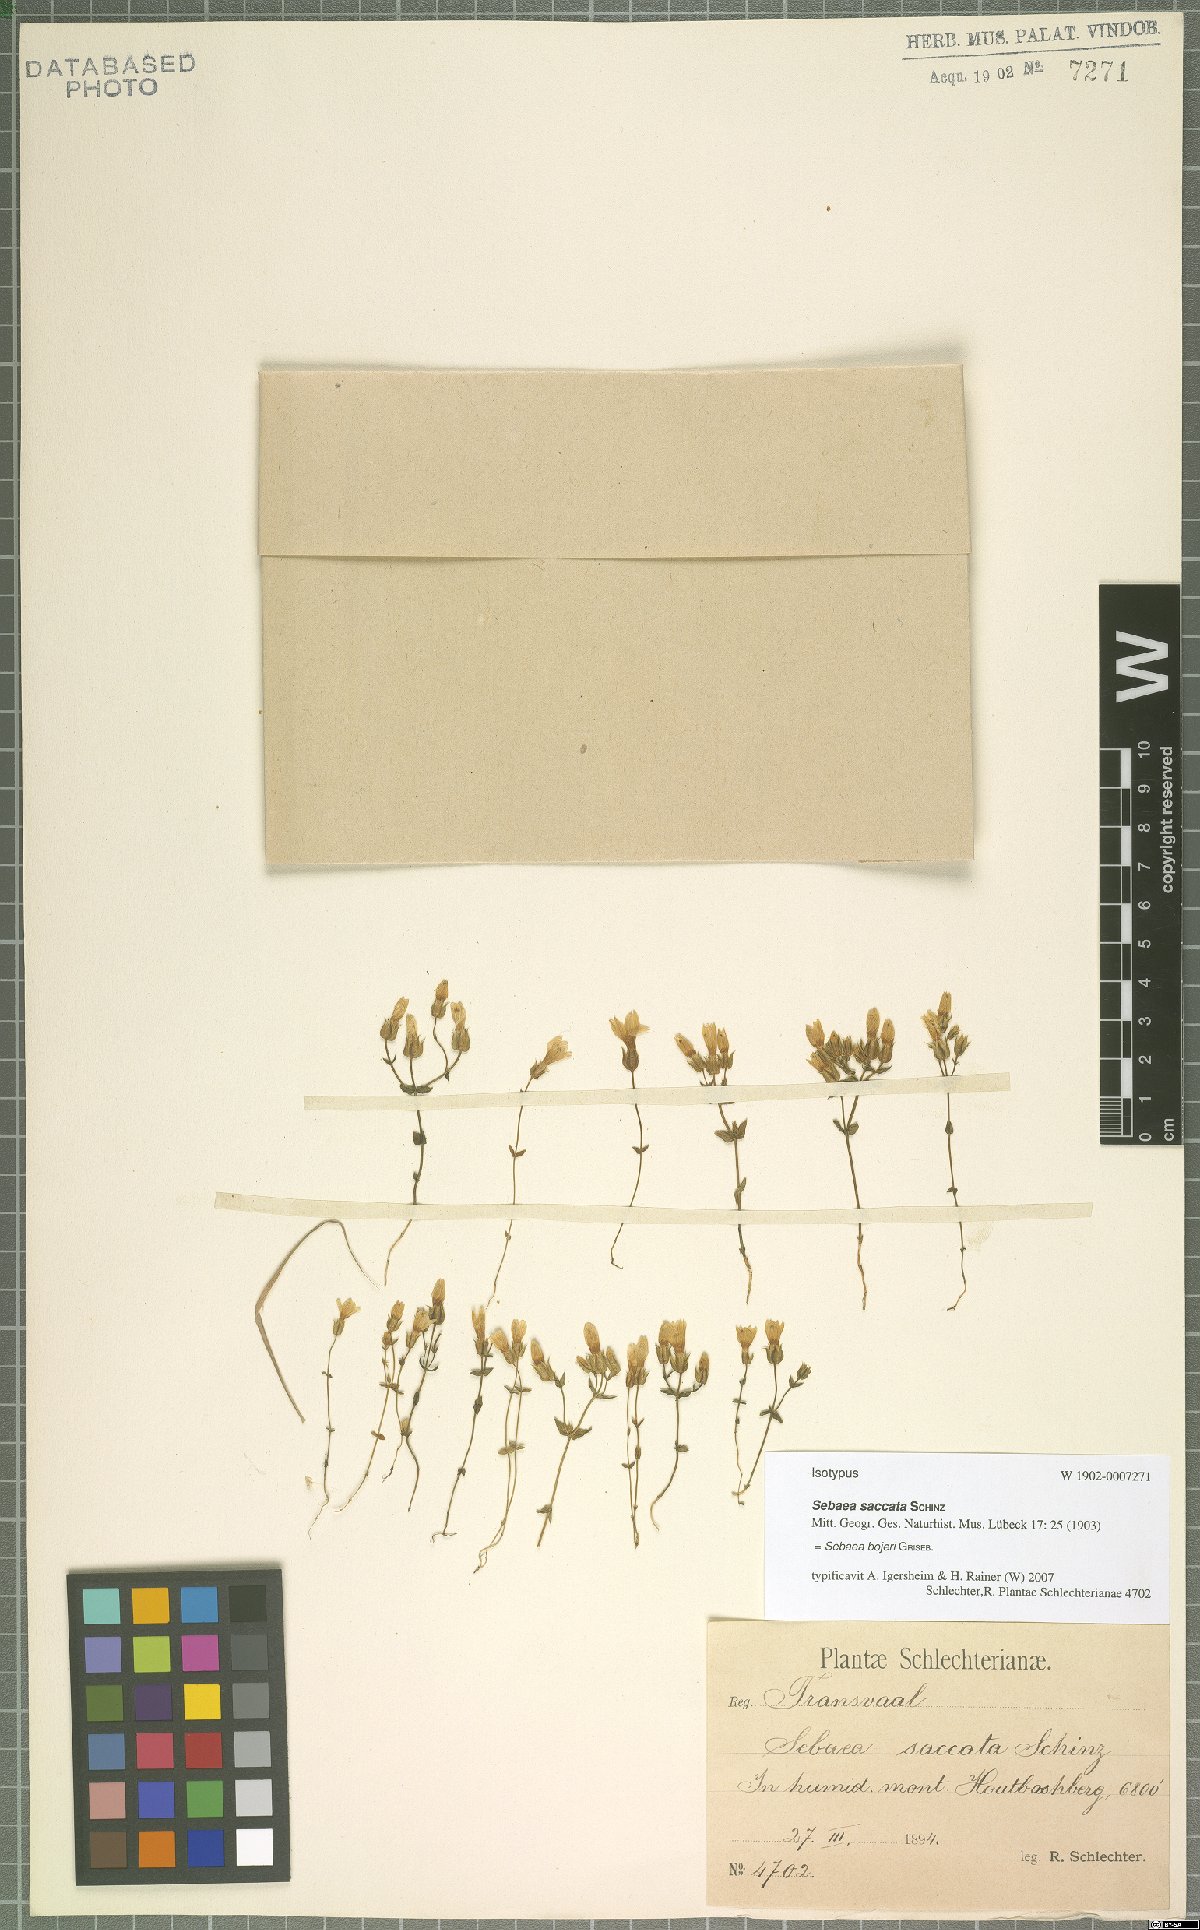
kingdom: Plantae
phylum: Tracheophyta
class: Magnoliopsida
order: Gentianales
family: Gentianaceae
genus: Sebaea
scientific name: Sebaea bojeri
